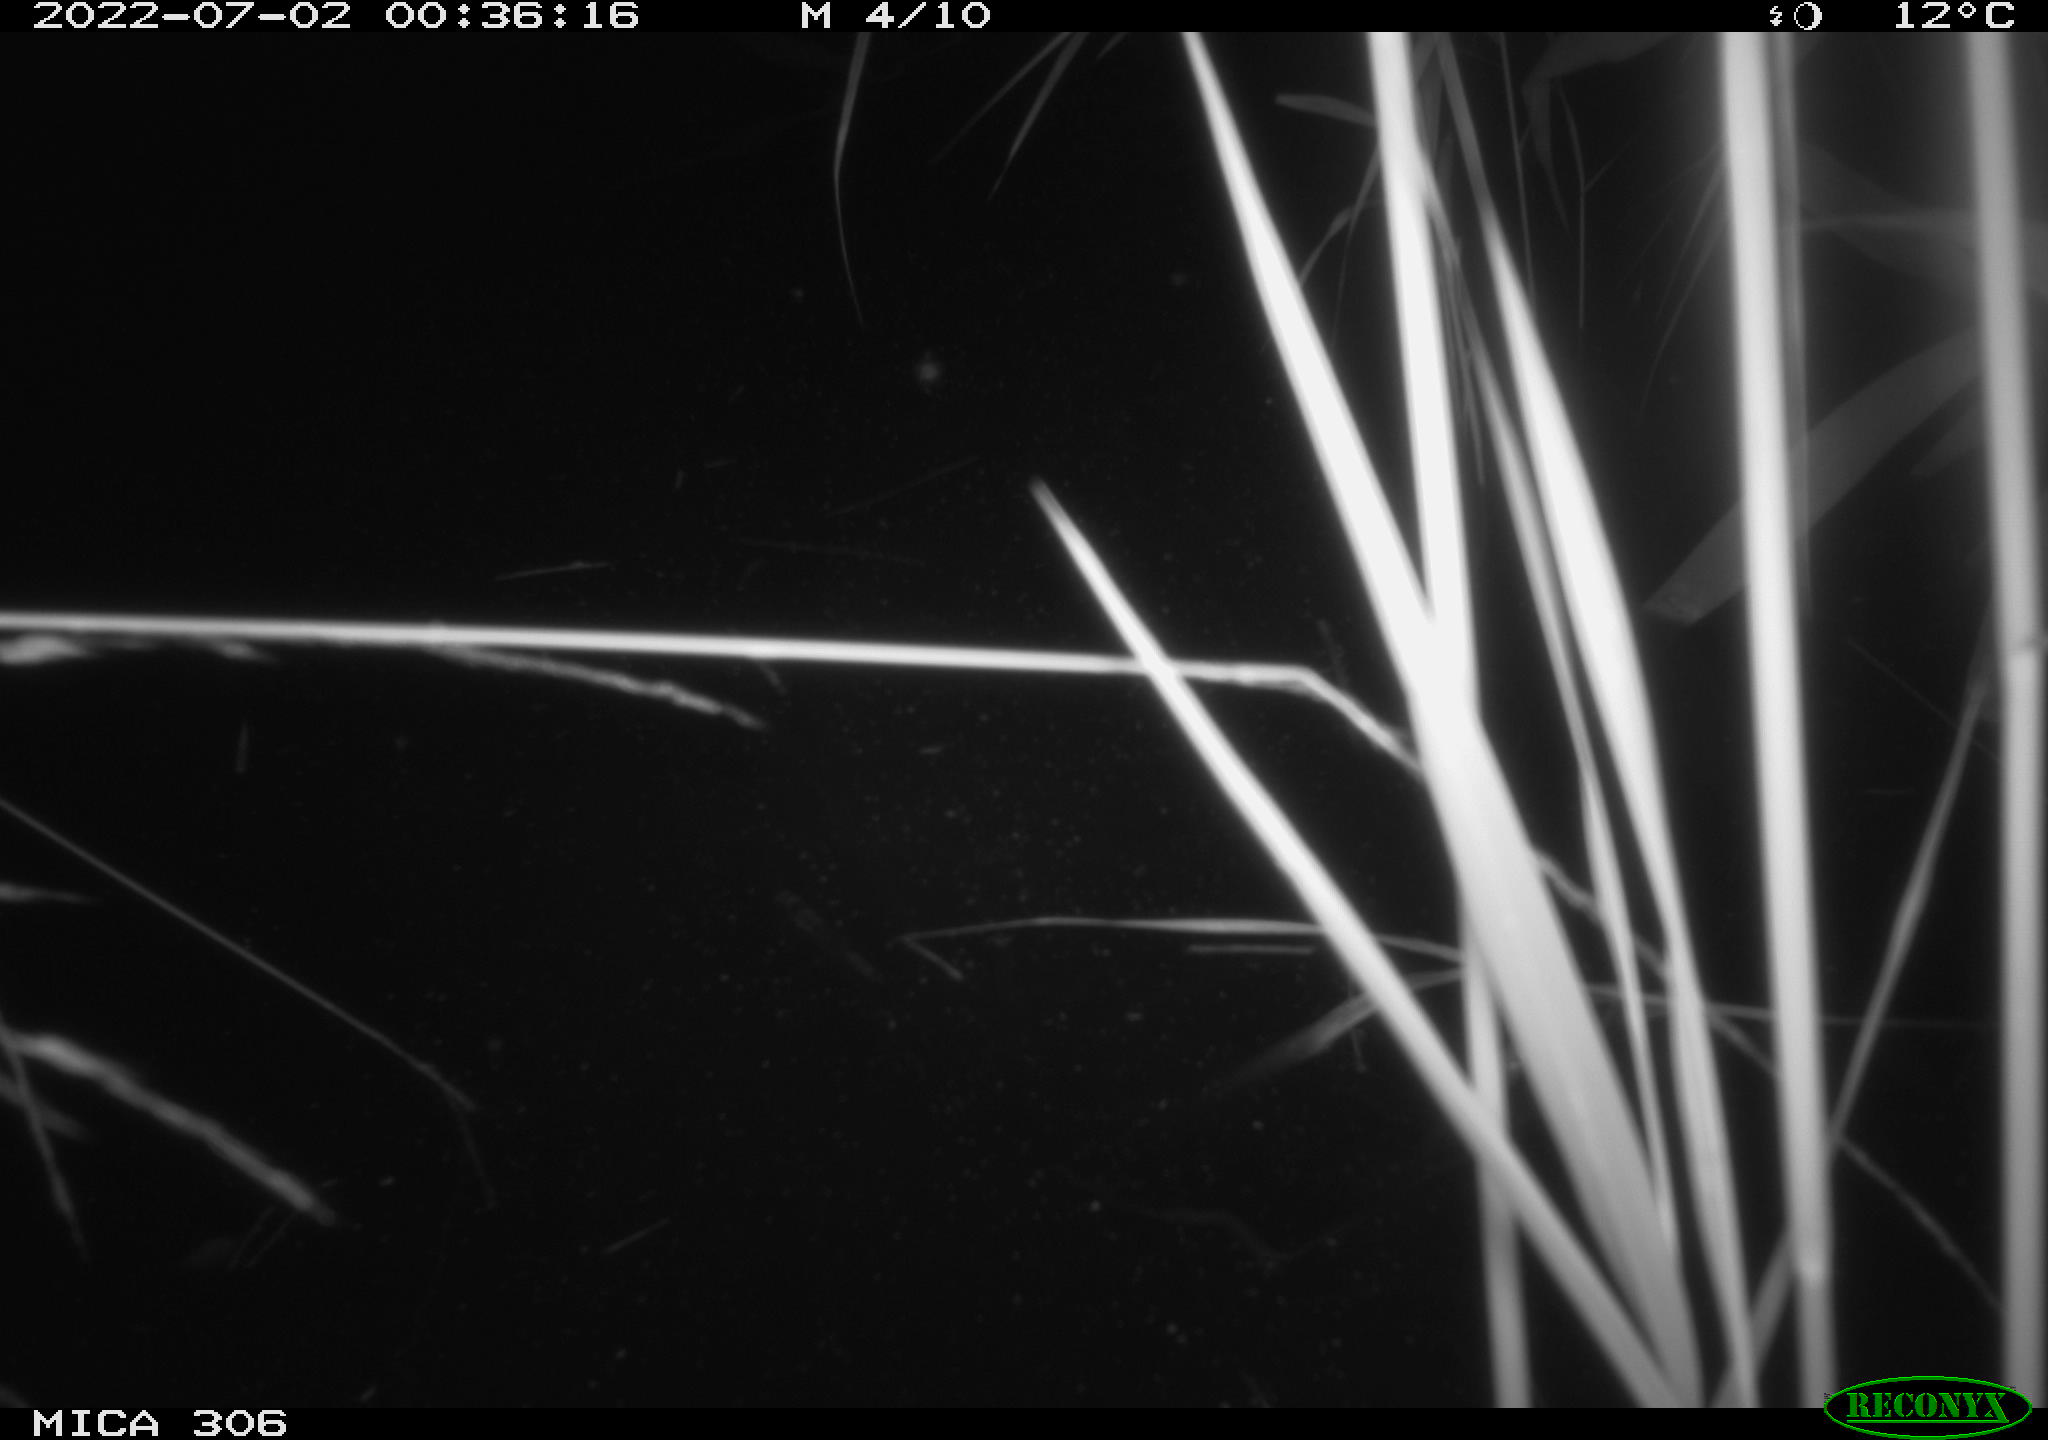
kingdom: Animalia
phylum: Chordata
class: Mammalia
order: Rodentia
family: Cricetidae
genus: Ondatra
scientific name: Ondatra zibethicus
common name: Muskrat
